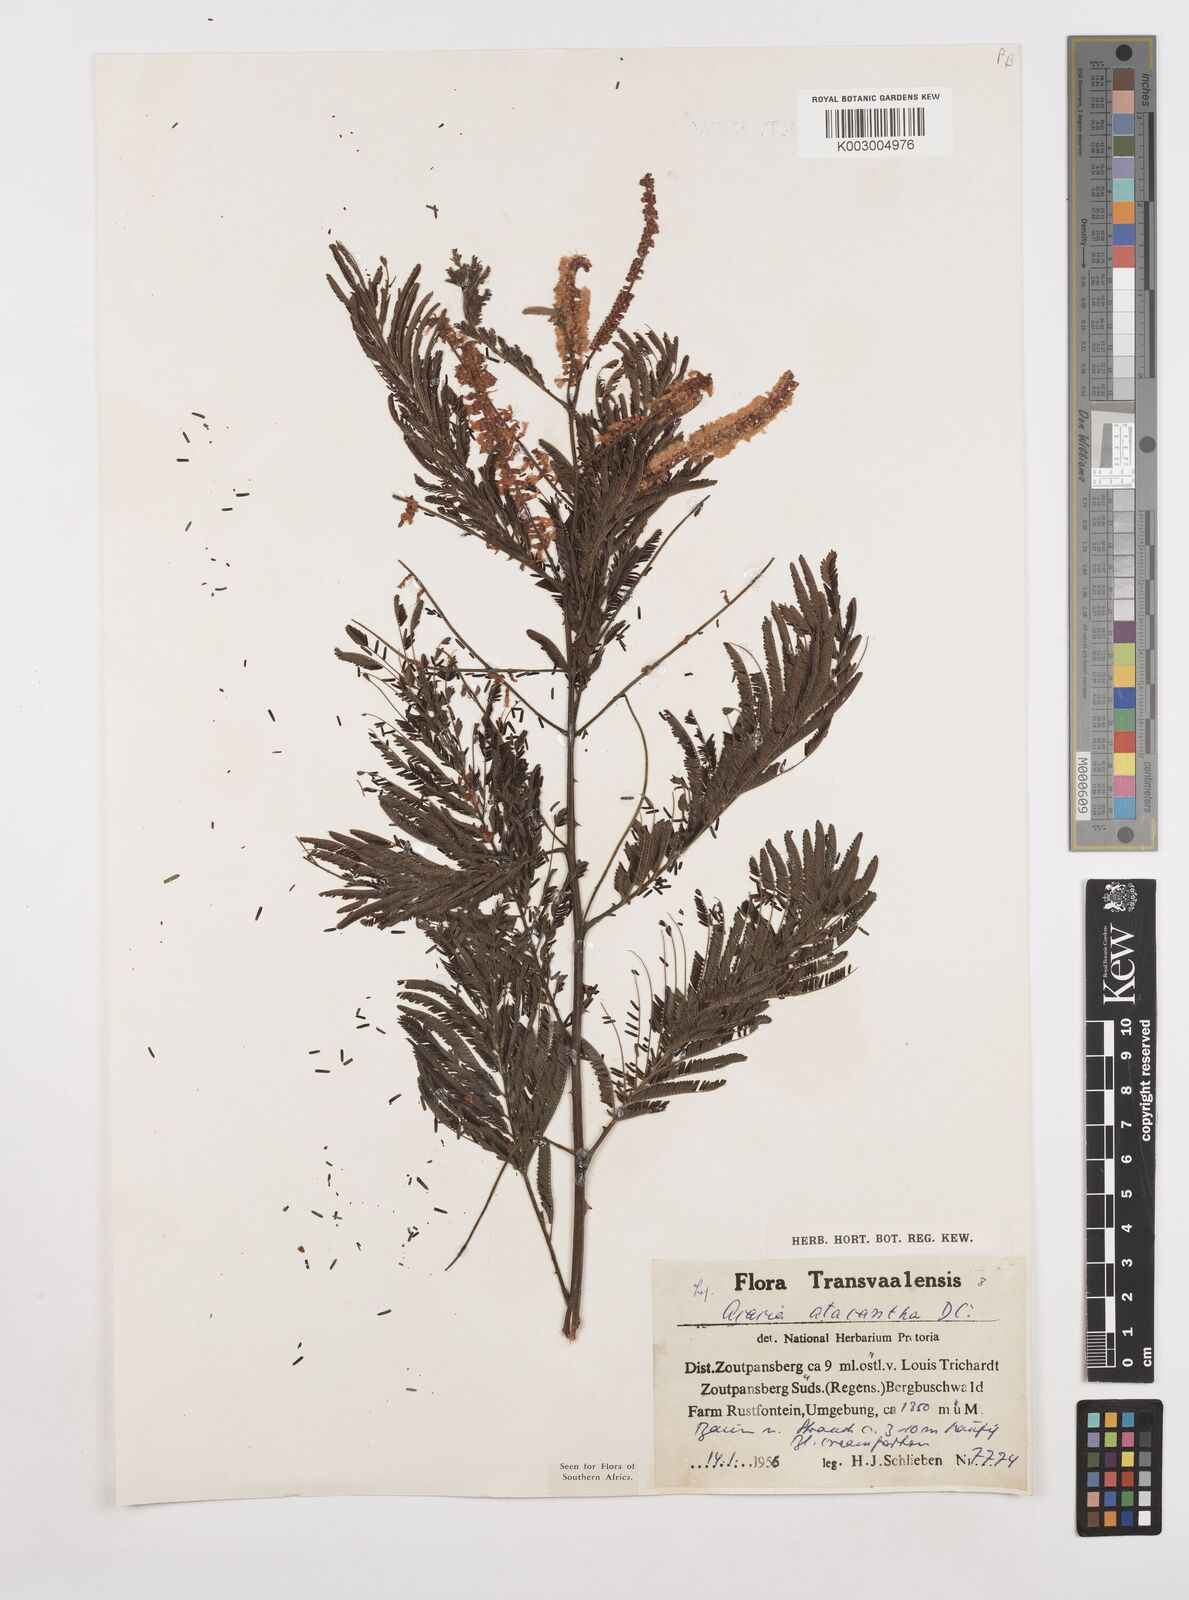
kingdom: Plantae
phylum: Tracheophyta
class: Magnoliopsida
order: Fabales
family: Fabaceae
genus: Senegalia
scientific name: Senegalia ataxacantha
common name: Flame acacia
